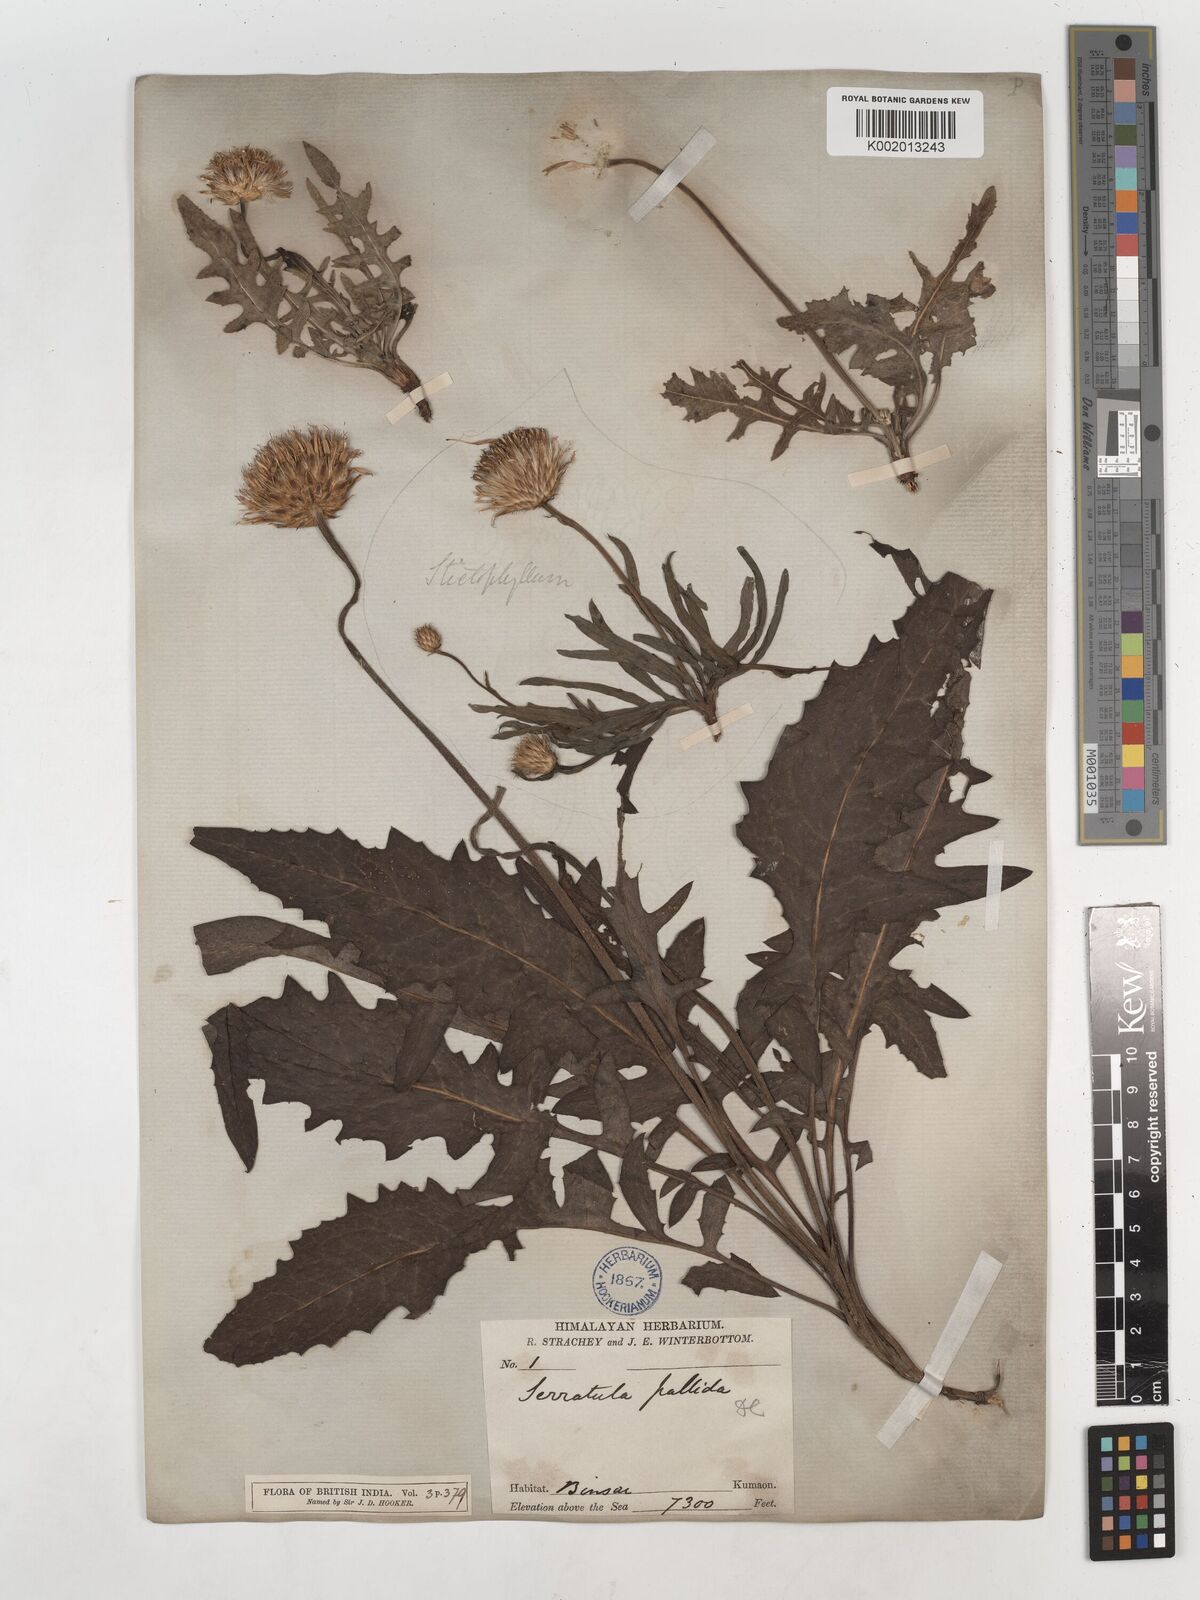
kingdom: Plantae
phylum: Tracheophyta
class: Magnoliopsida
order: Asterales
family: Asteraceae
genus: Klasea
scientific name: Klasea pallida
